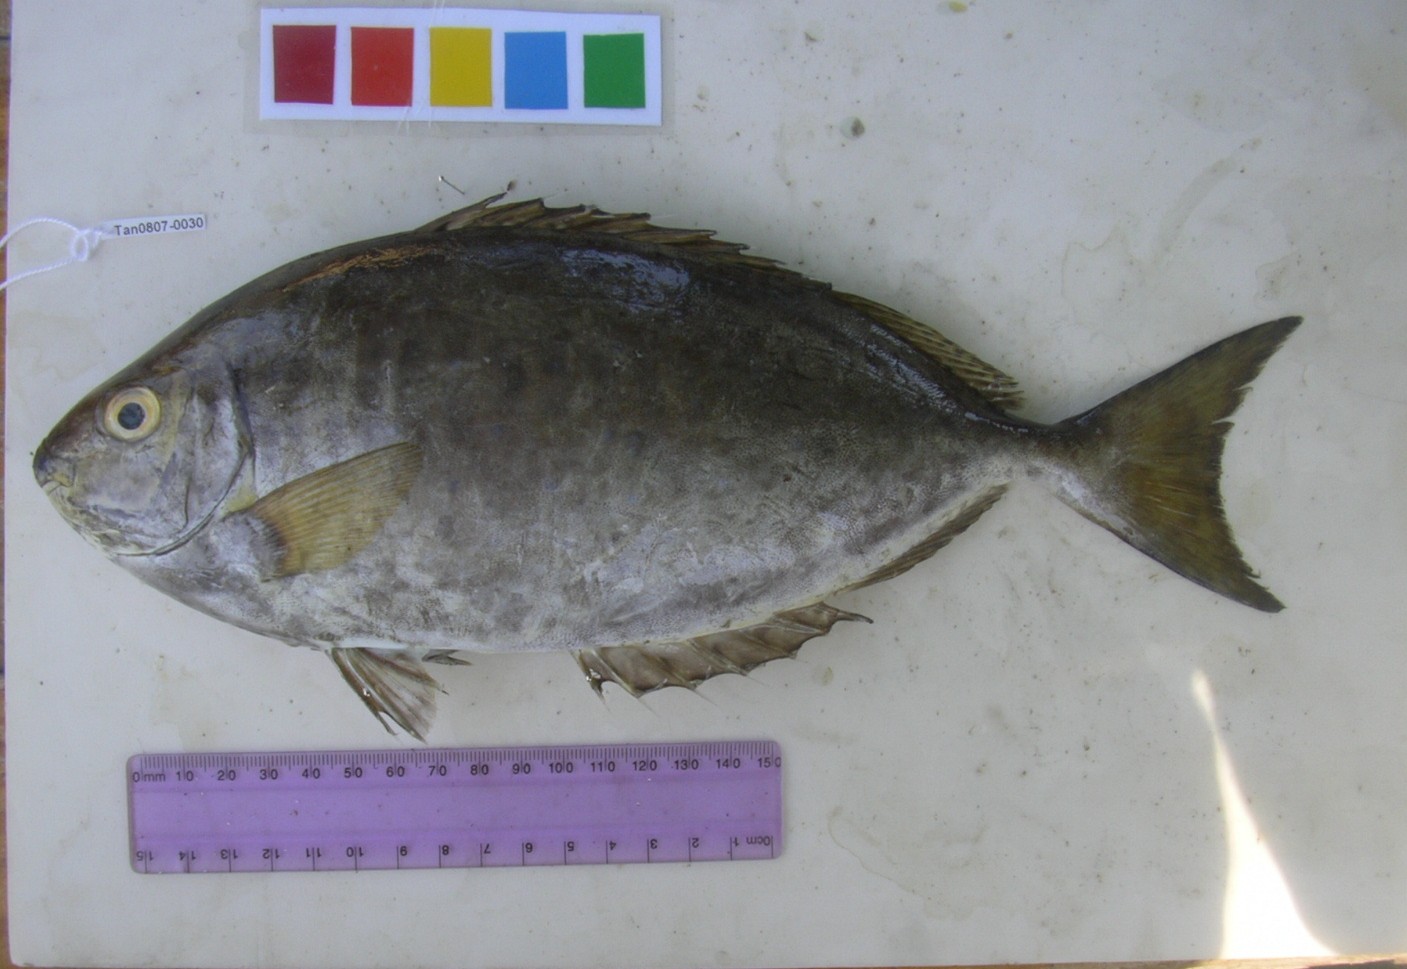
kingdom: Animalia
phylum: Chordata
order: Perciformes
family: Siganidae
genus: Siganus
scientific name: Siganus sutor
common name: Shoemaker spinefoot
